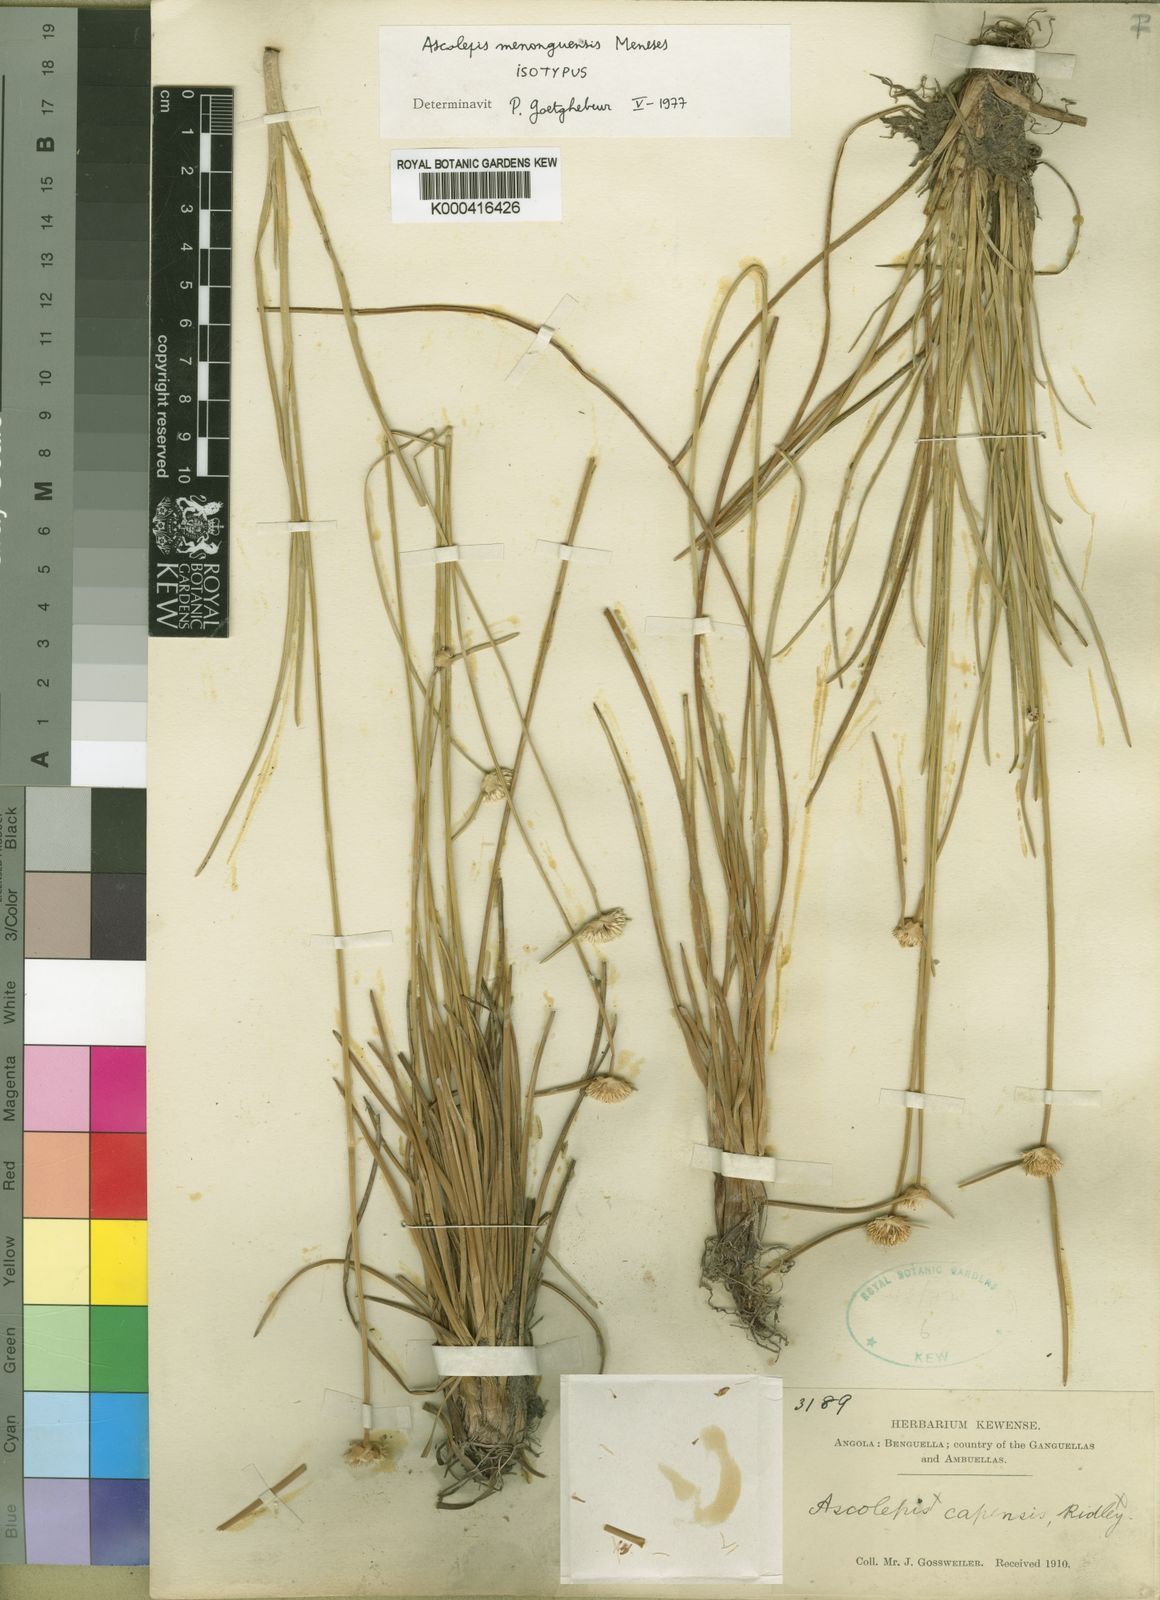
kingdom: Plantae
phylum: Tracheophyta
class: Liliopsida
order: Poales
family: Cyperaceae
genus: Cyperus
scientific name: Cyperus proteus
